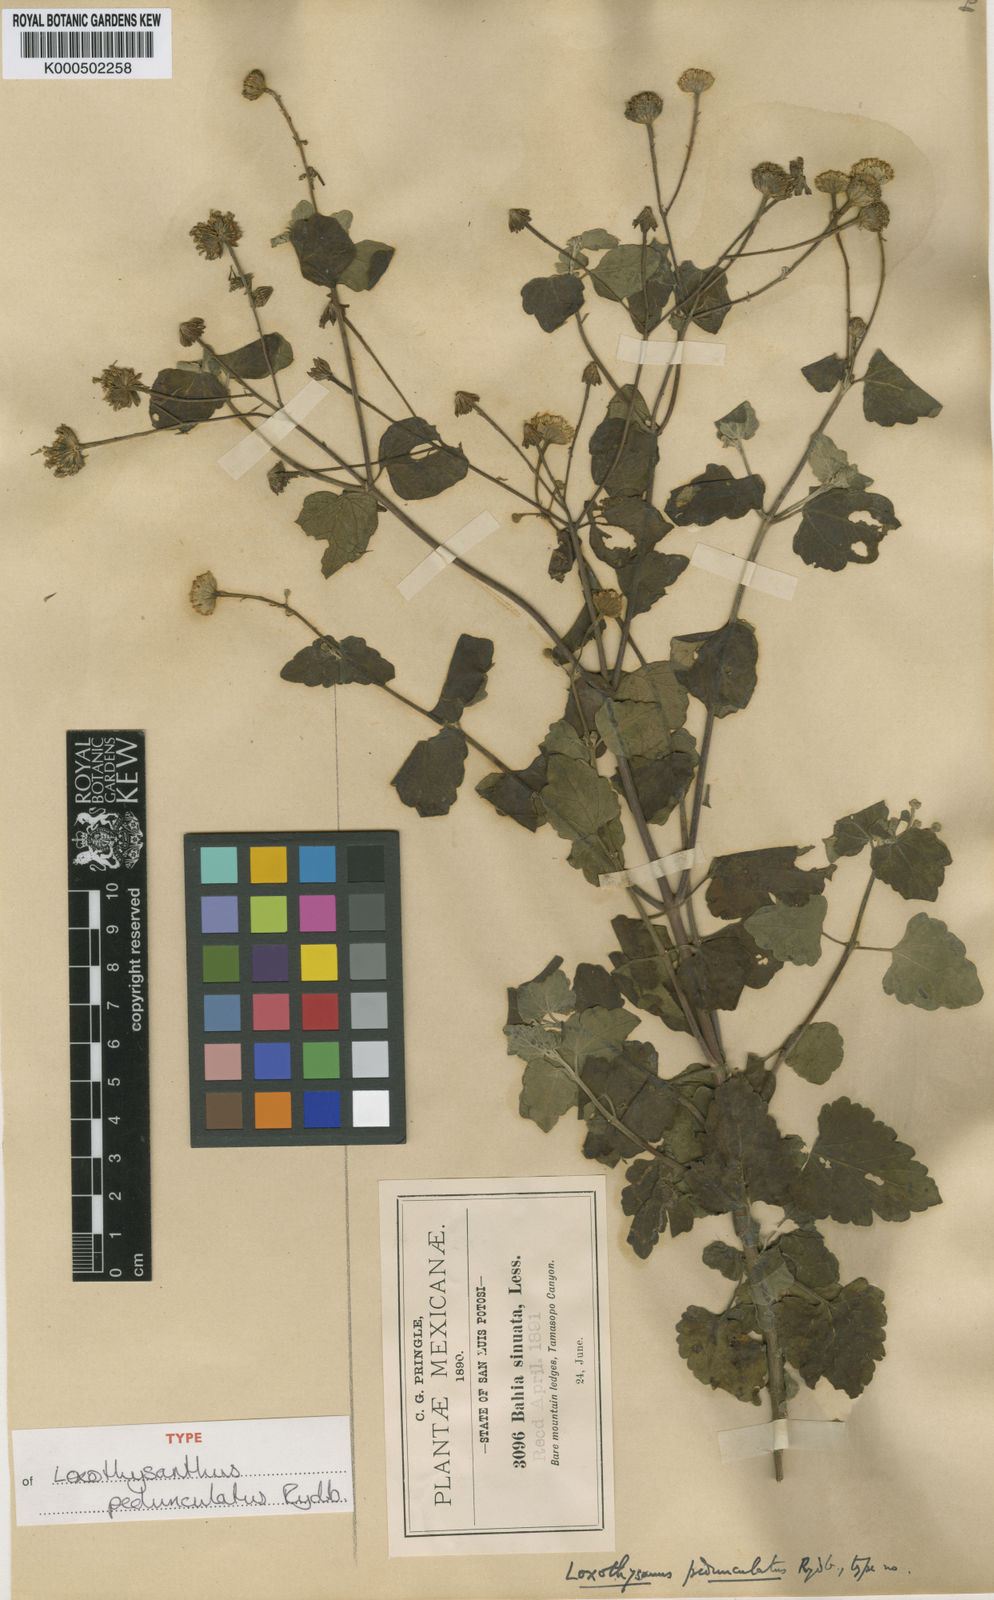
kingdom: Plantae
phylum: Tracheophyta
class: Magnoliopsida
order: Asterales
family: Asteraceae
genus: Loxothysanus
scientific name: Loxothysanus pedunculatus
